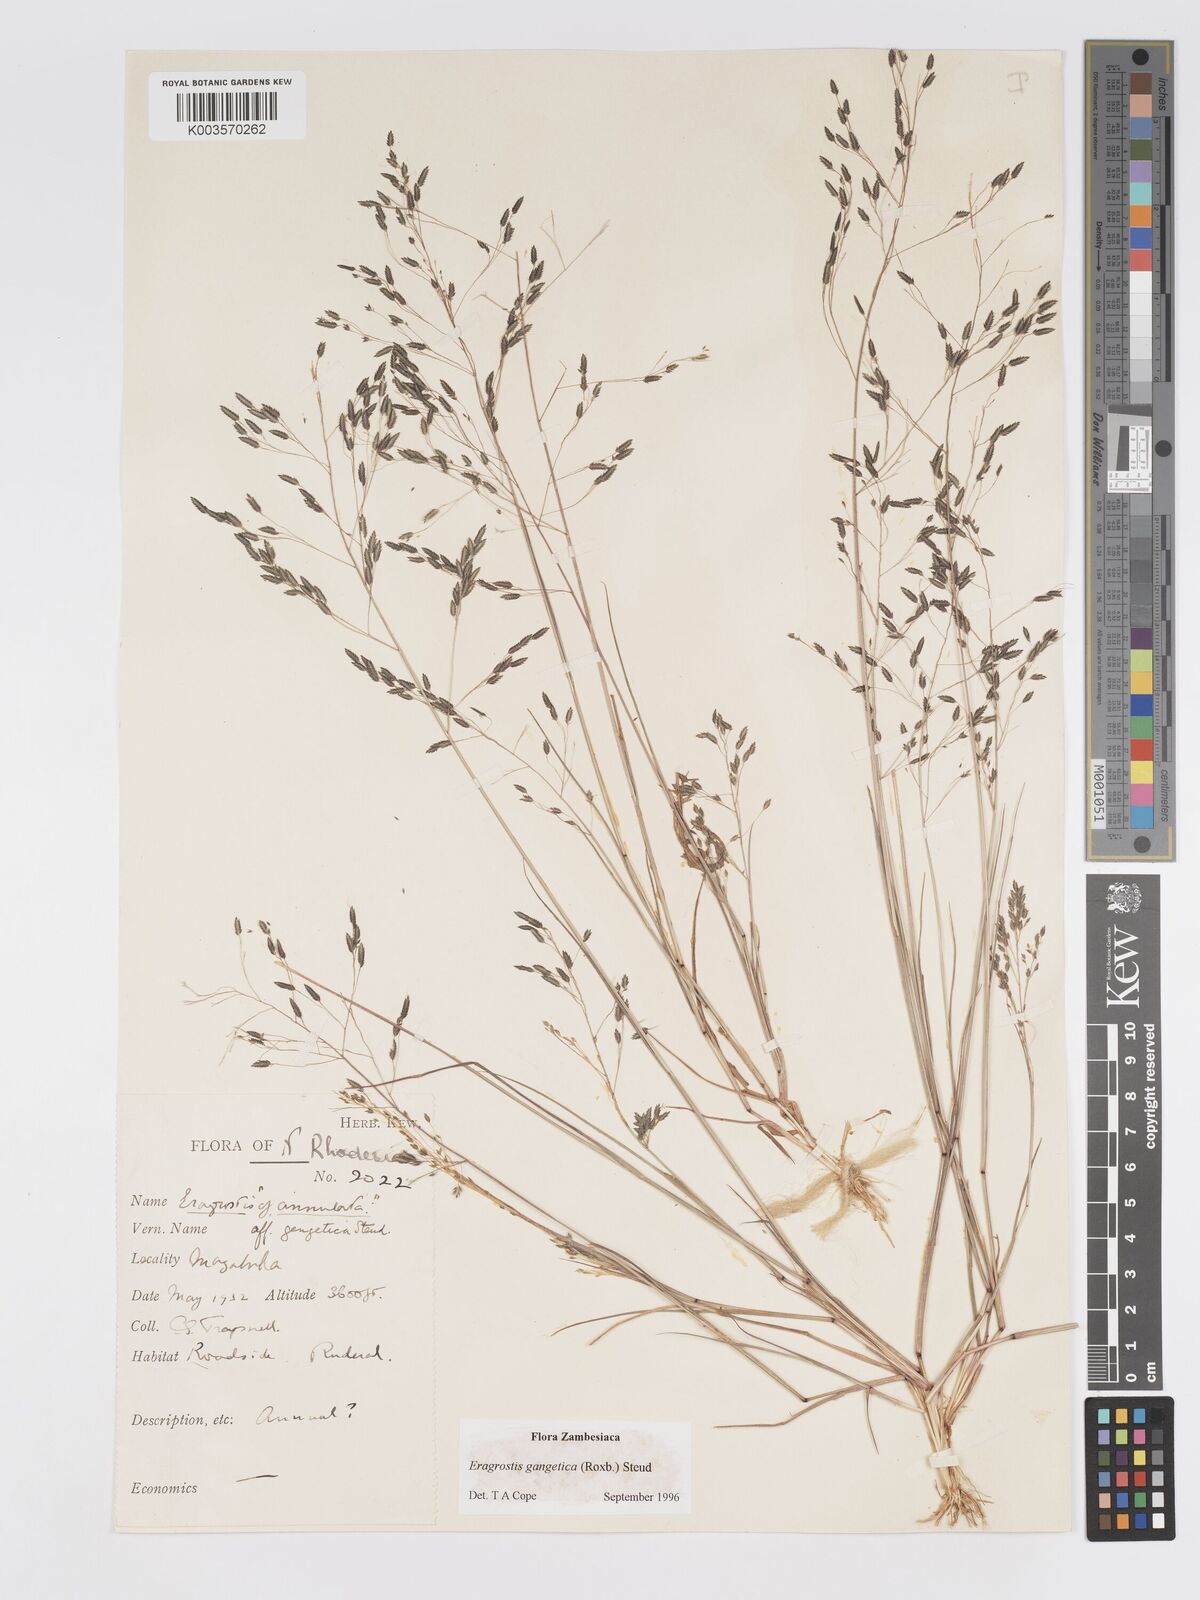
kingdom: Plantae
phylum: Tracheophyta
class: Liliopsida
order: Poales
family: Poaceae
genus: Eragrostis
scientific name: Eragrostis gangetica
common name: Slimflower lovegrass
